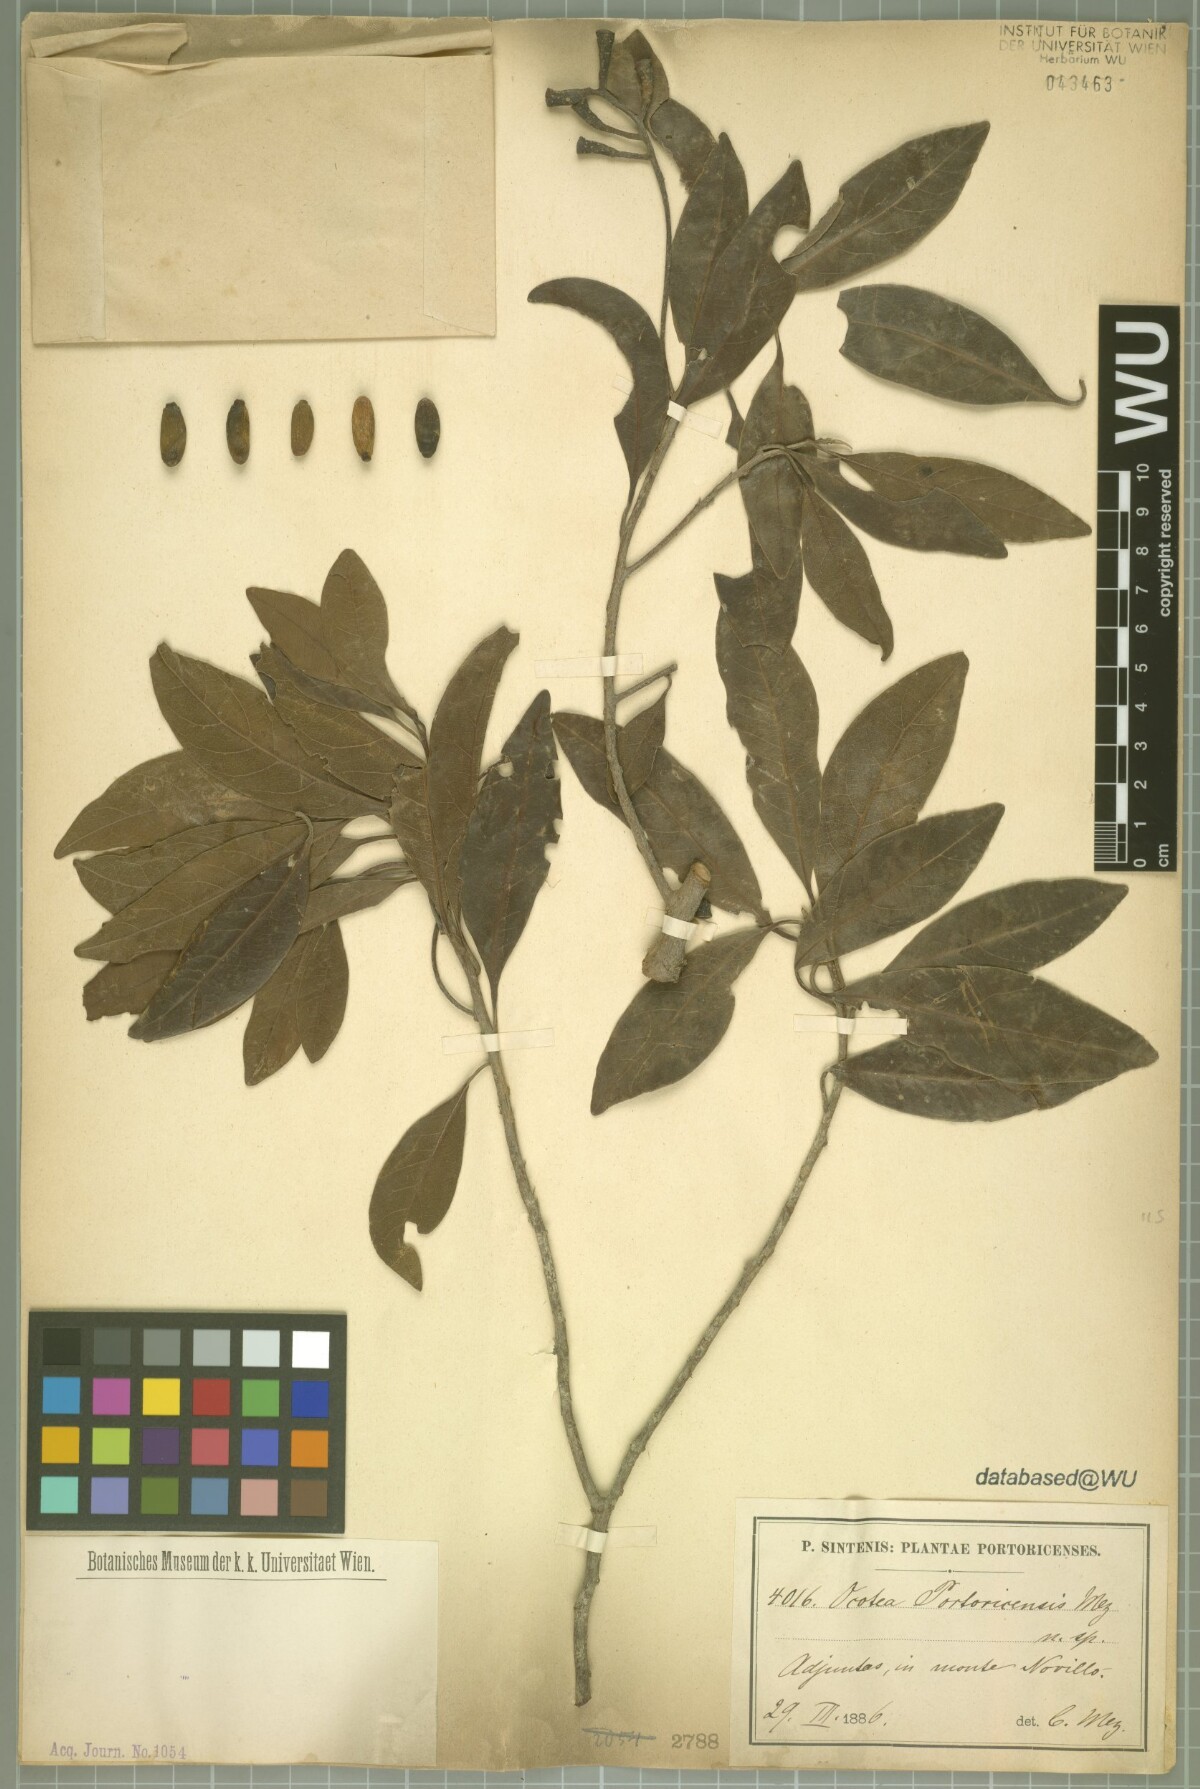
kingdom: Plantae
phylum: Tracheophyta
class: Magnoliopsida
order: Laurales
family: Lauraceae
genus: Ocotea
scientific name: Ocotea portoricensis
